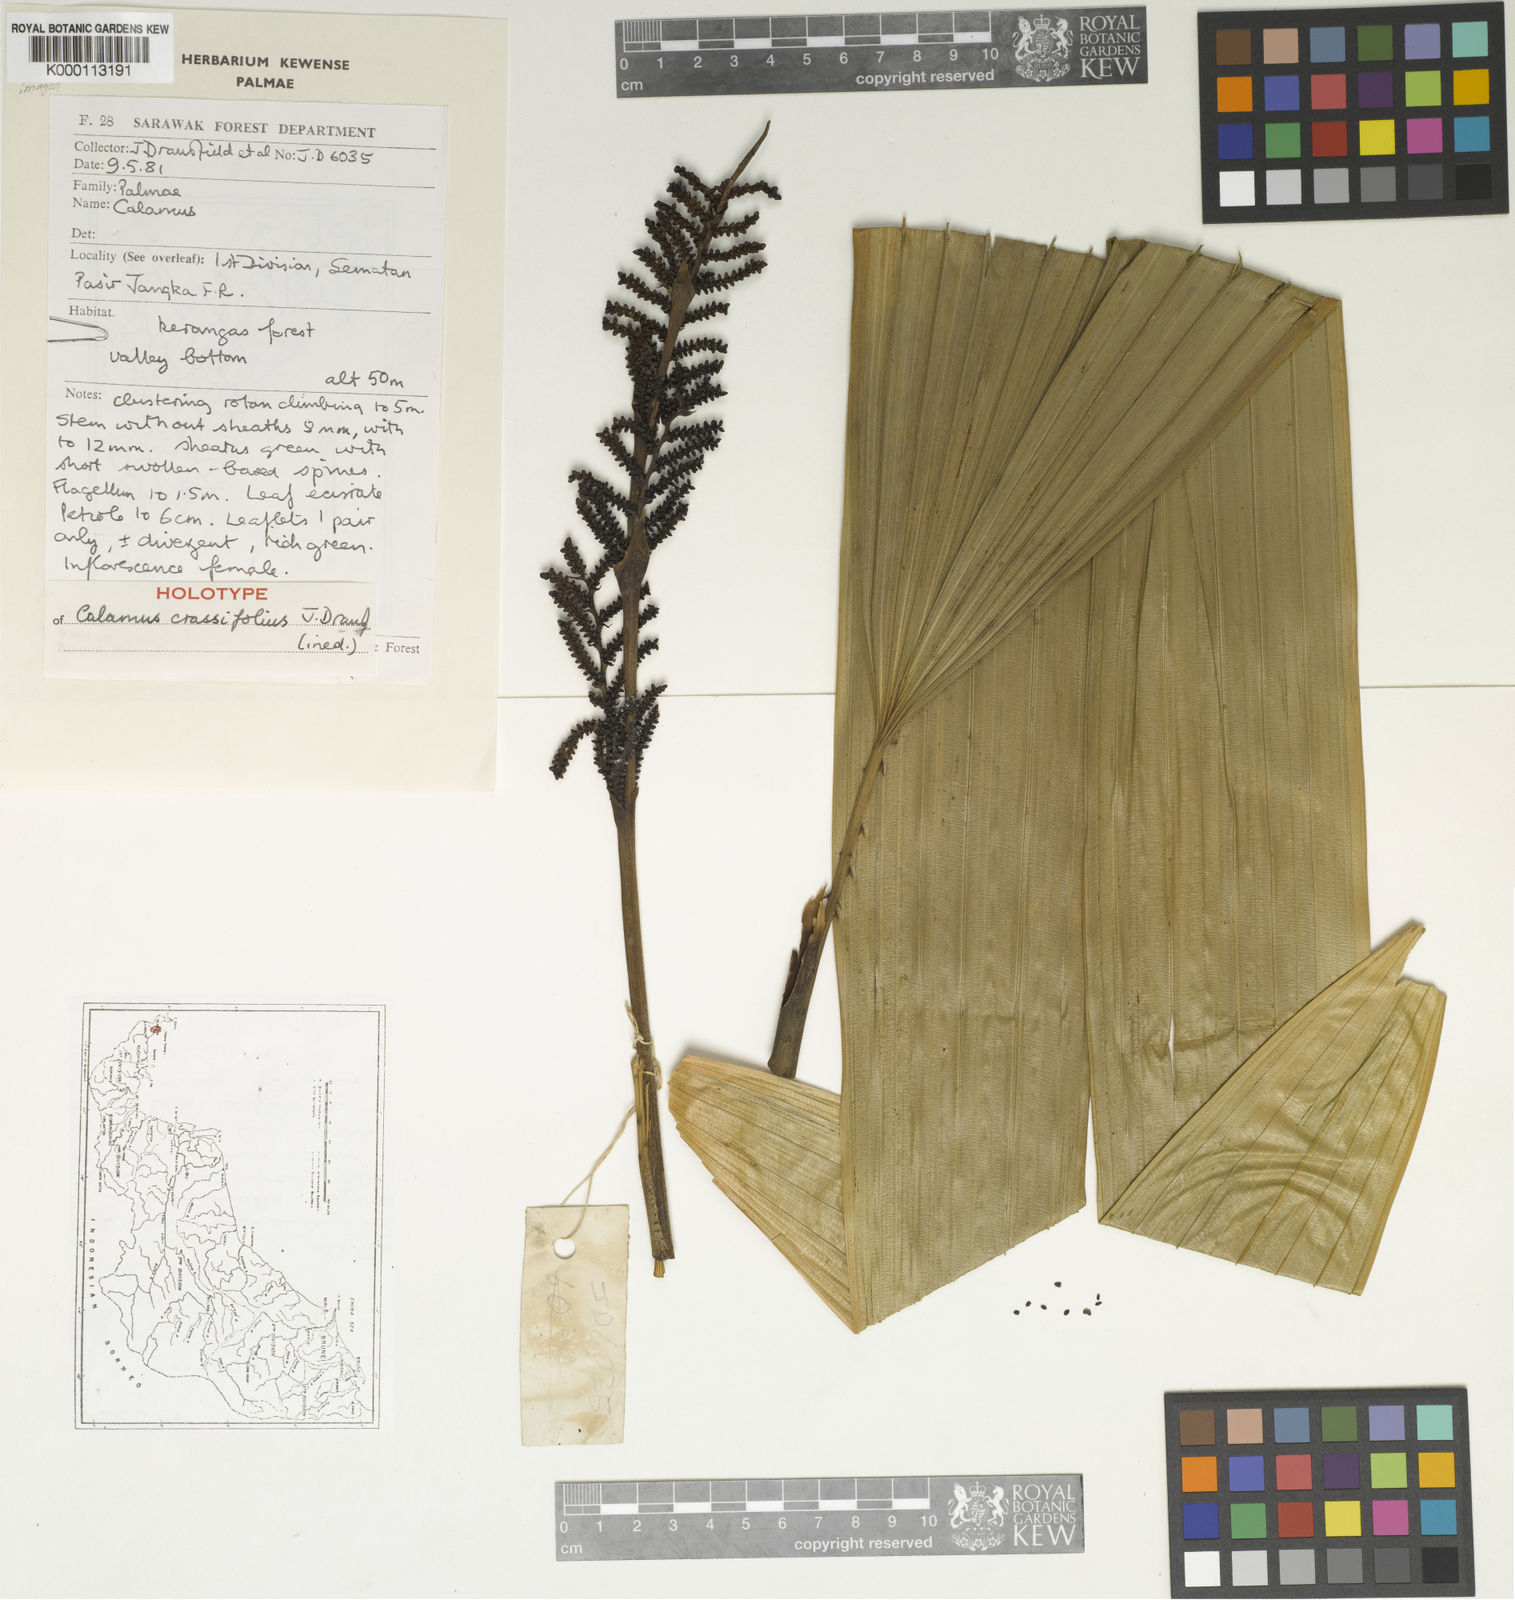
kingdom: Plantae
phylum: Tracheophyta
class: Liliopsida
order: Arecales
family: Arecaceae
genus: Calamus
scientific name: Calamus crassifolius
